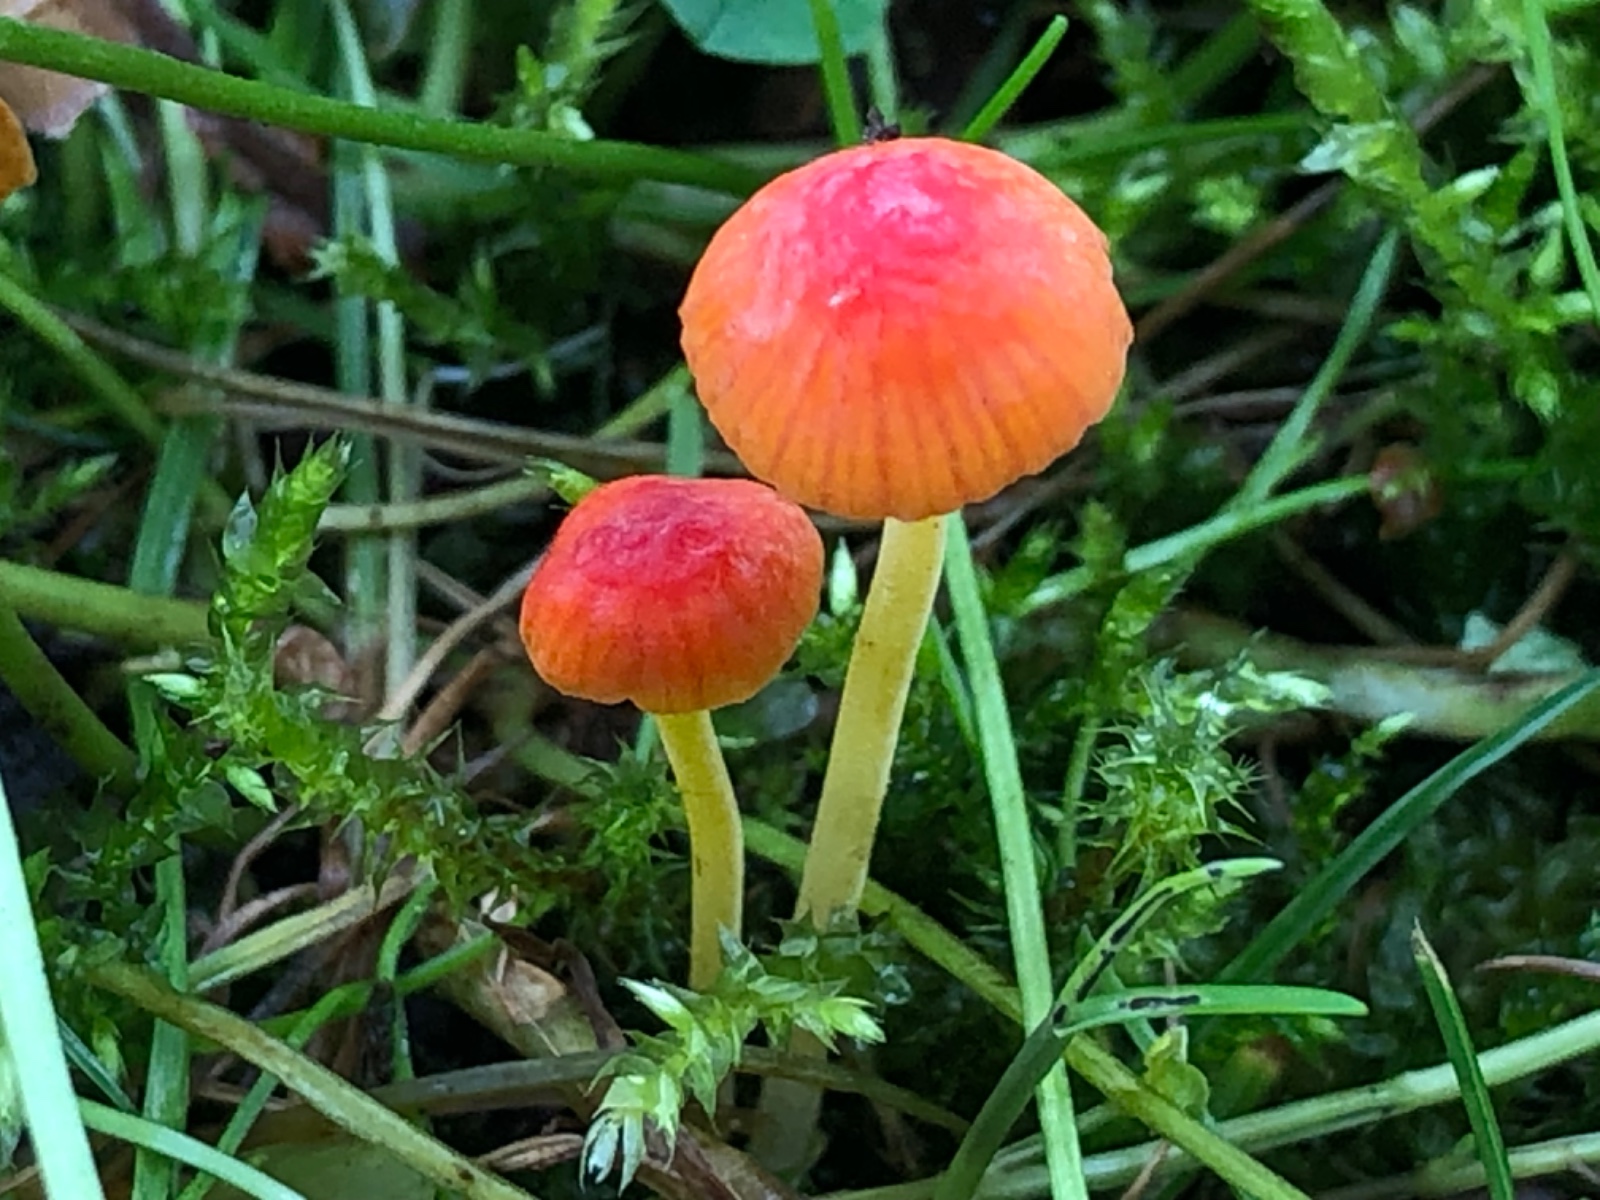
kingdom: Fungi
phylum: Basidiomycota
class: Agaricomycetes
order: Agaricales
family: Mycenaceae
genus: Mycena
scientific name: Mycena acicula
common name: orange huesvamp
